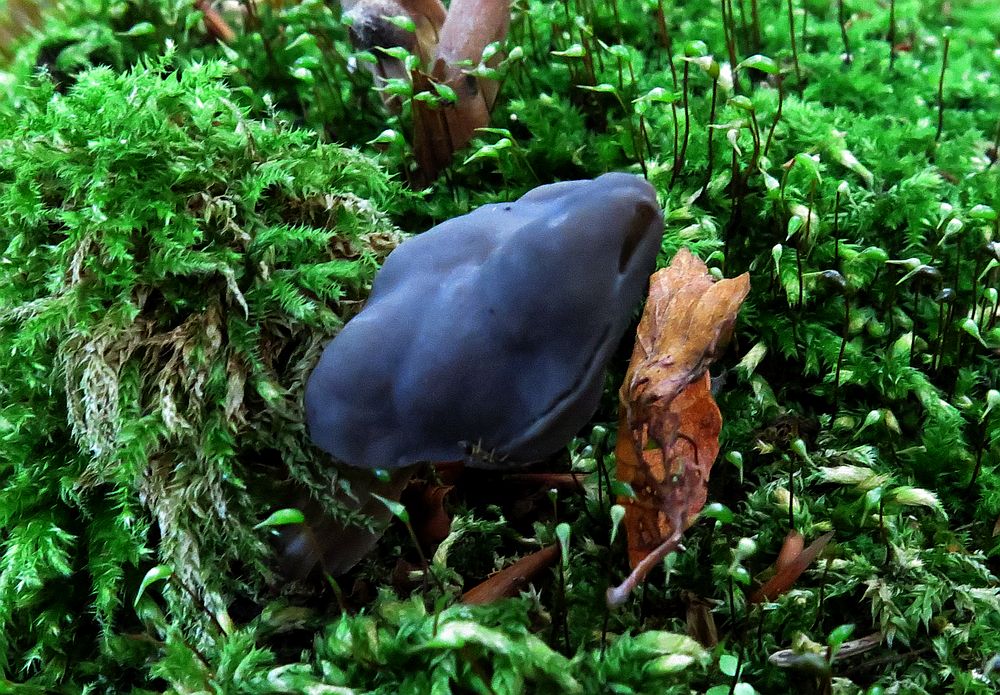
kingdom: Fungi
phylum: Ascomycota
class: Pezizomycetes
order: Pezizales
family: Helvellaceae
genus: Helvella
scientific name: Helvella lacunosa
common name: grubet foldhat
